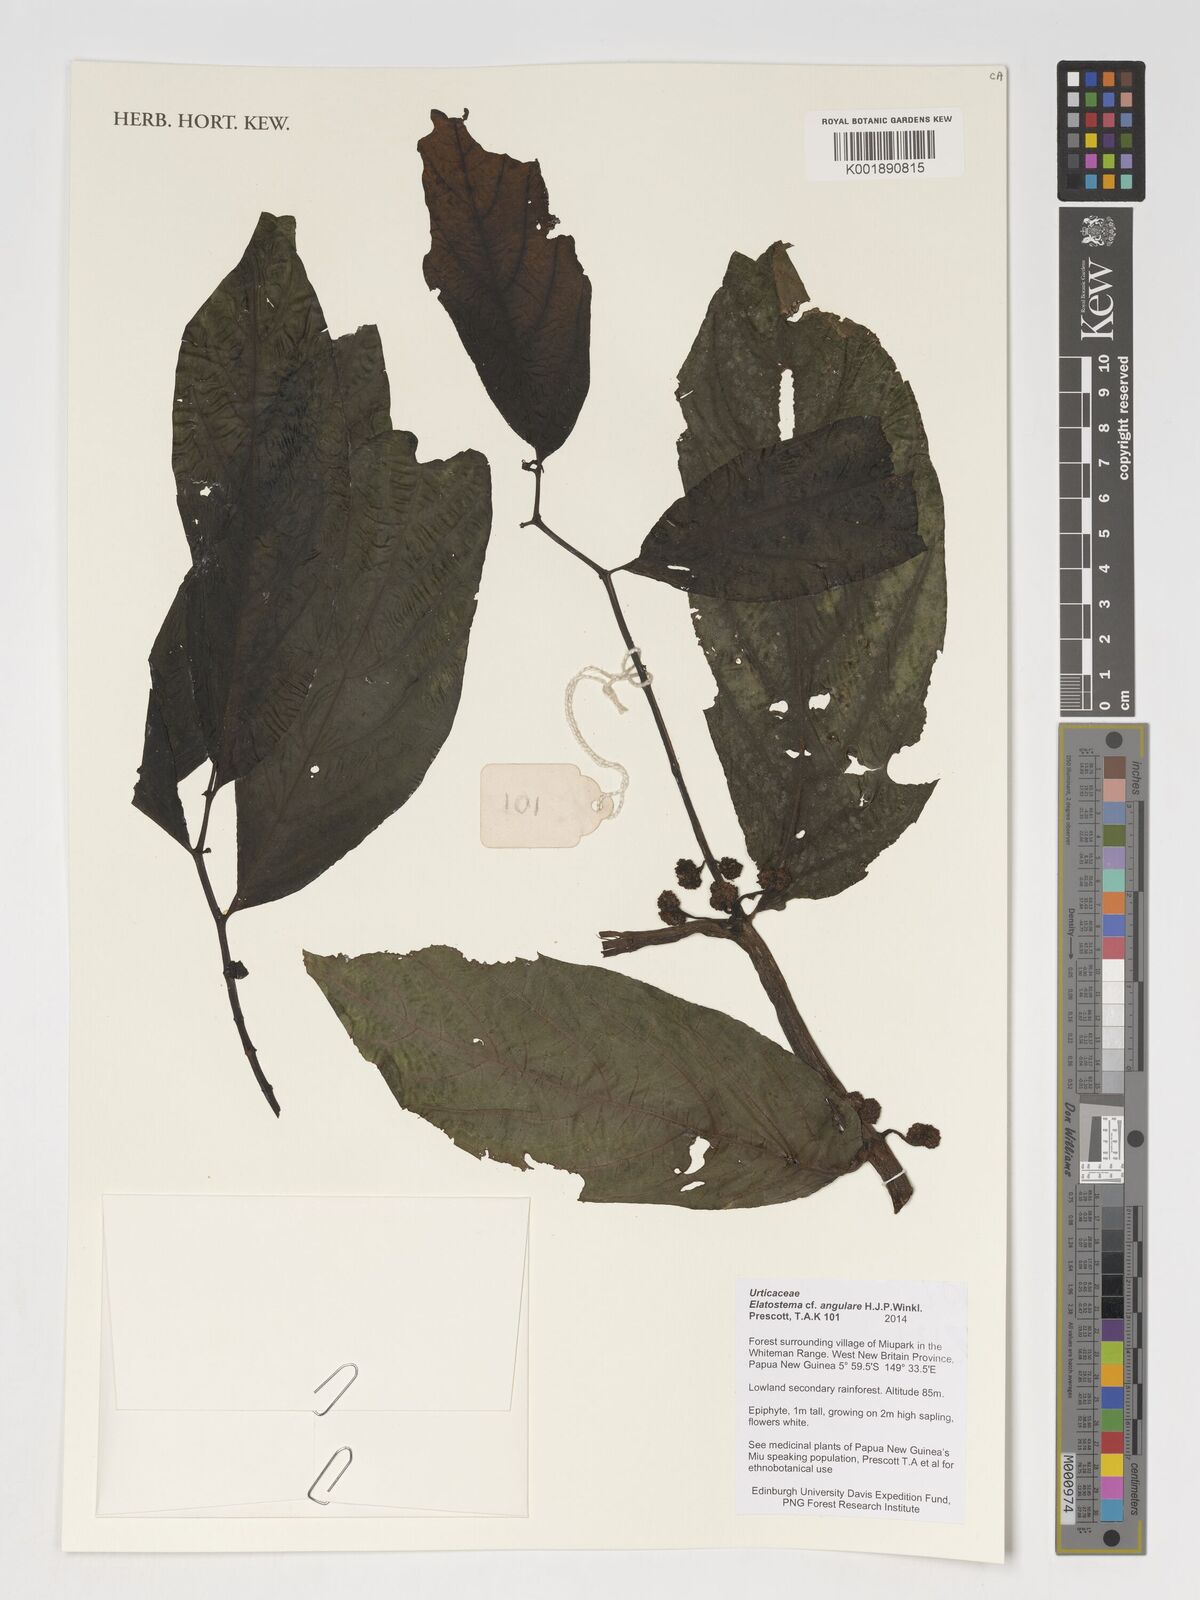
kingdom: Plantae
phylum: Tracheophyta
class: Magnoliopsida
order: Rosales
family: Urticaceae
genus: Elatostema
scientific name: Elatostema angulare
